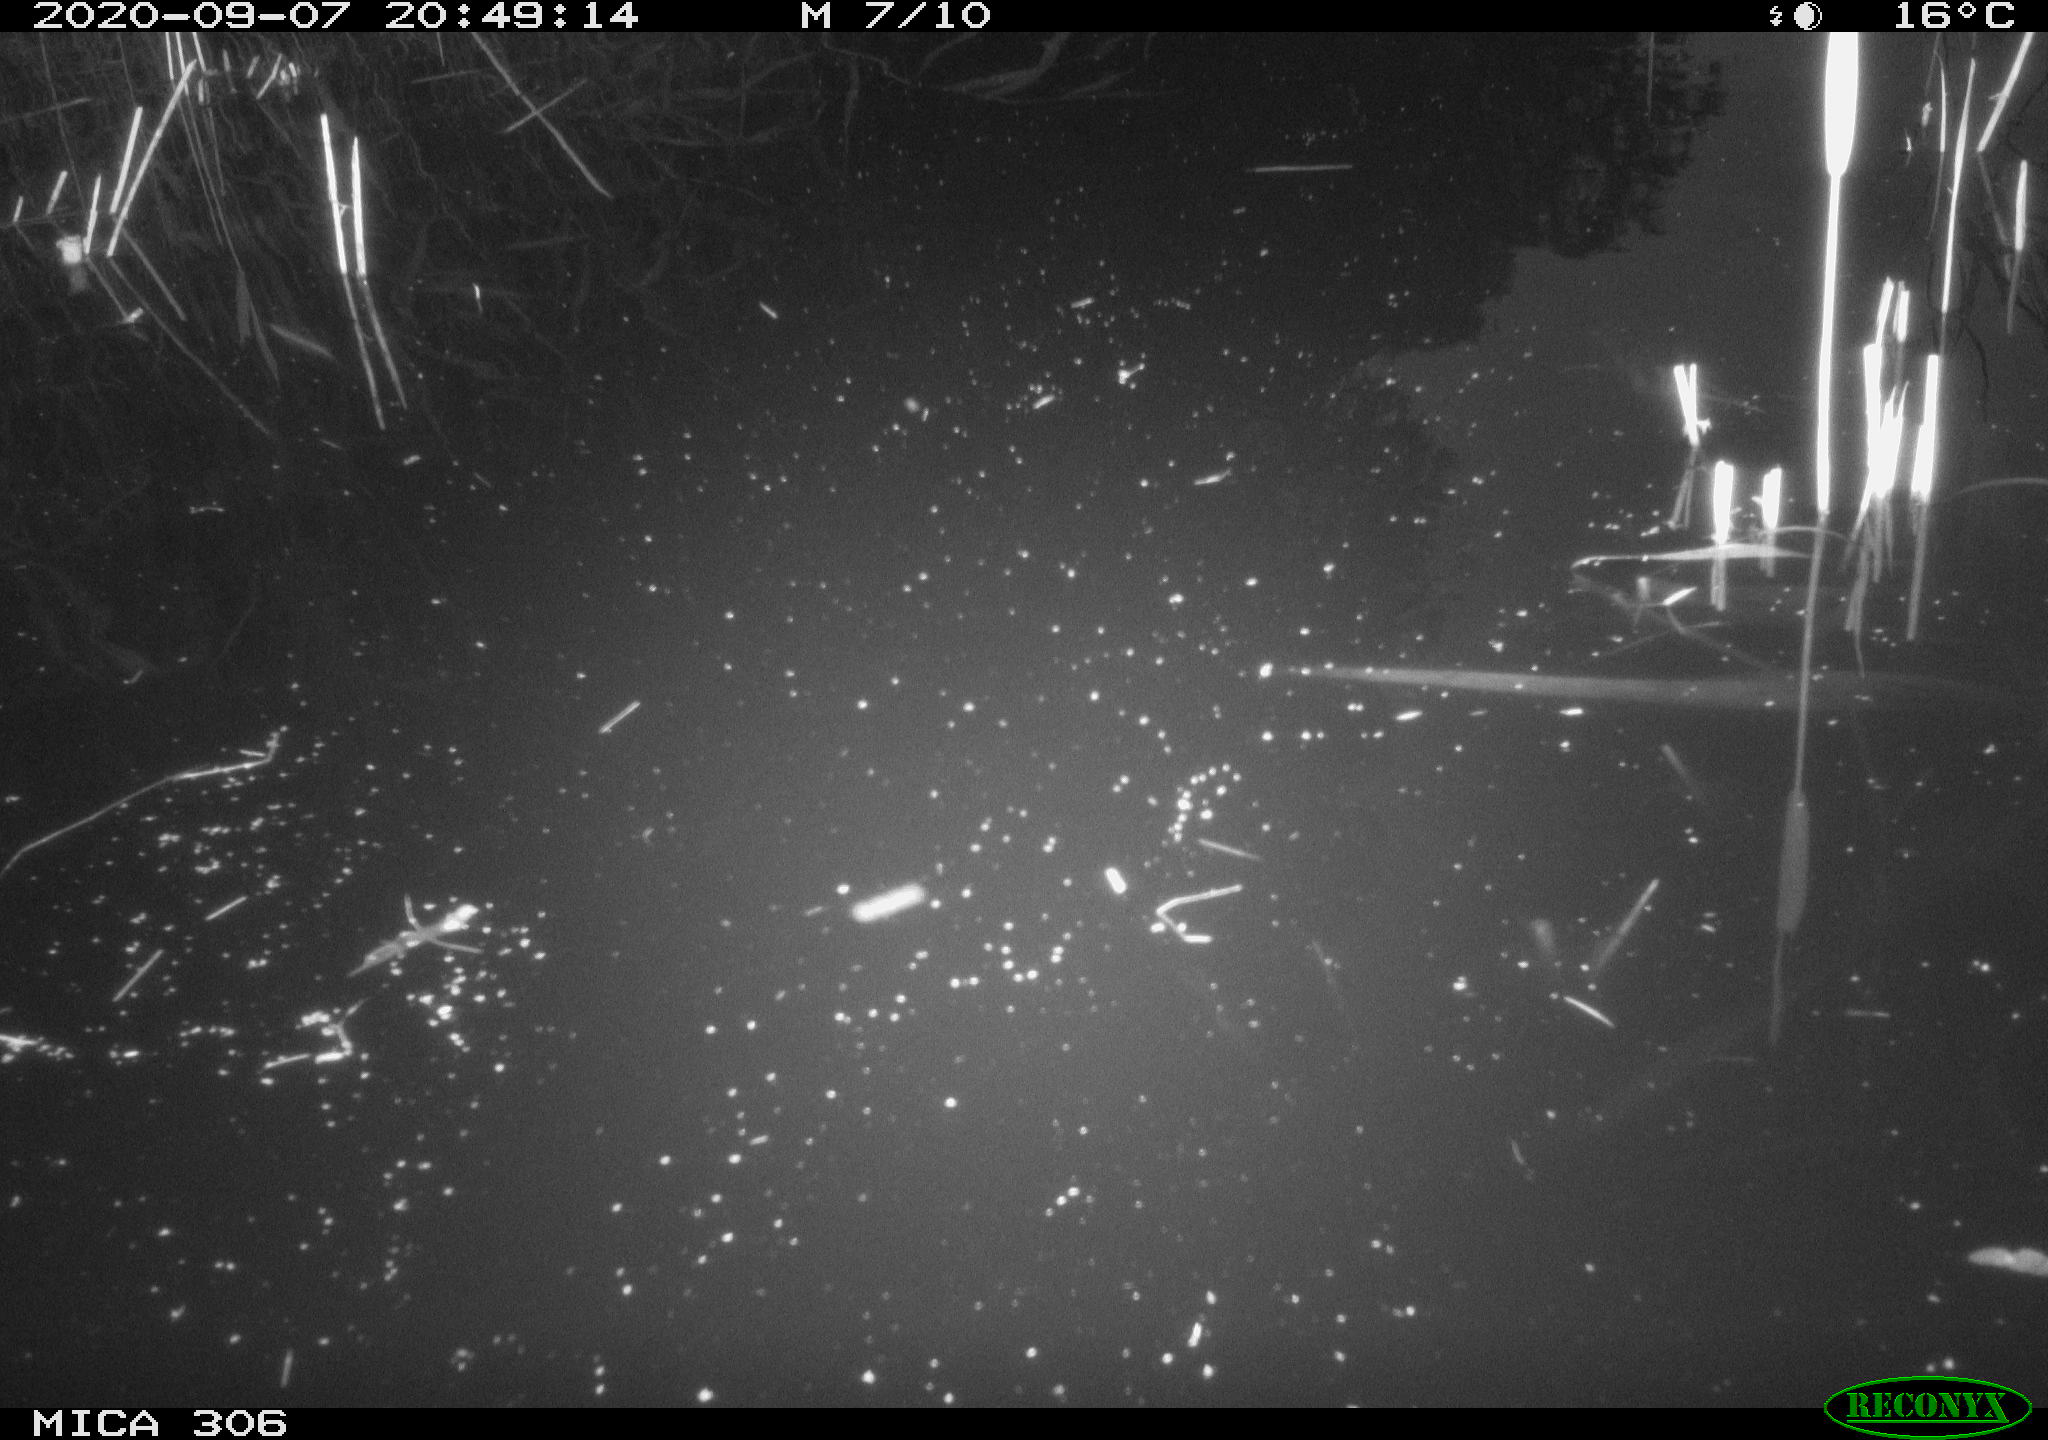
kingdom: Animalia
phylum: Chordata
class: Mammalia
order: Rodentia
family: Muridae
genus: Rattus
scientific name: Rattus norvegicus
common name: Brown rat
